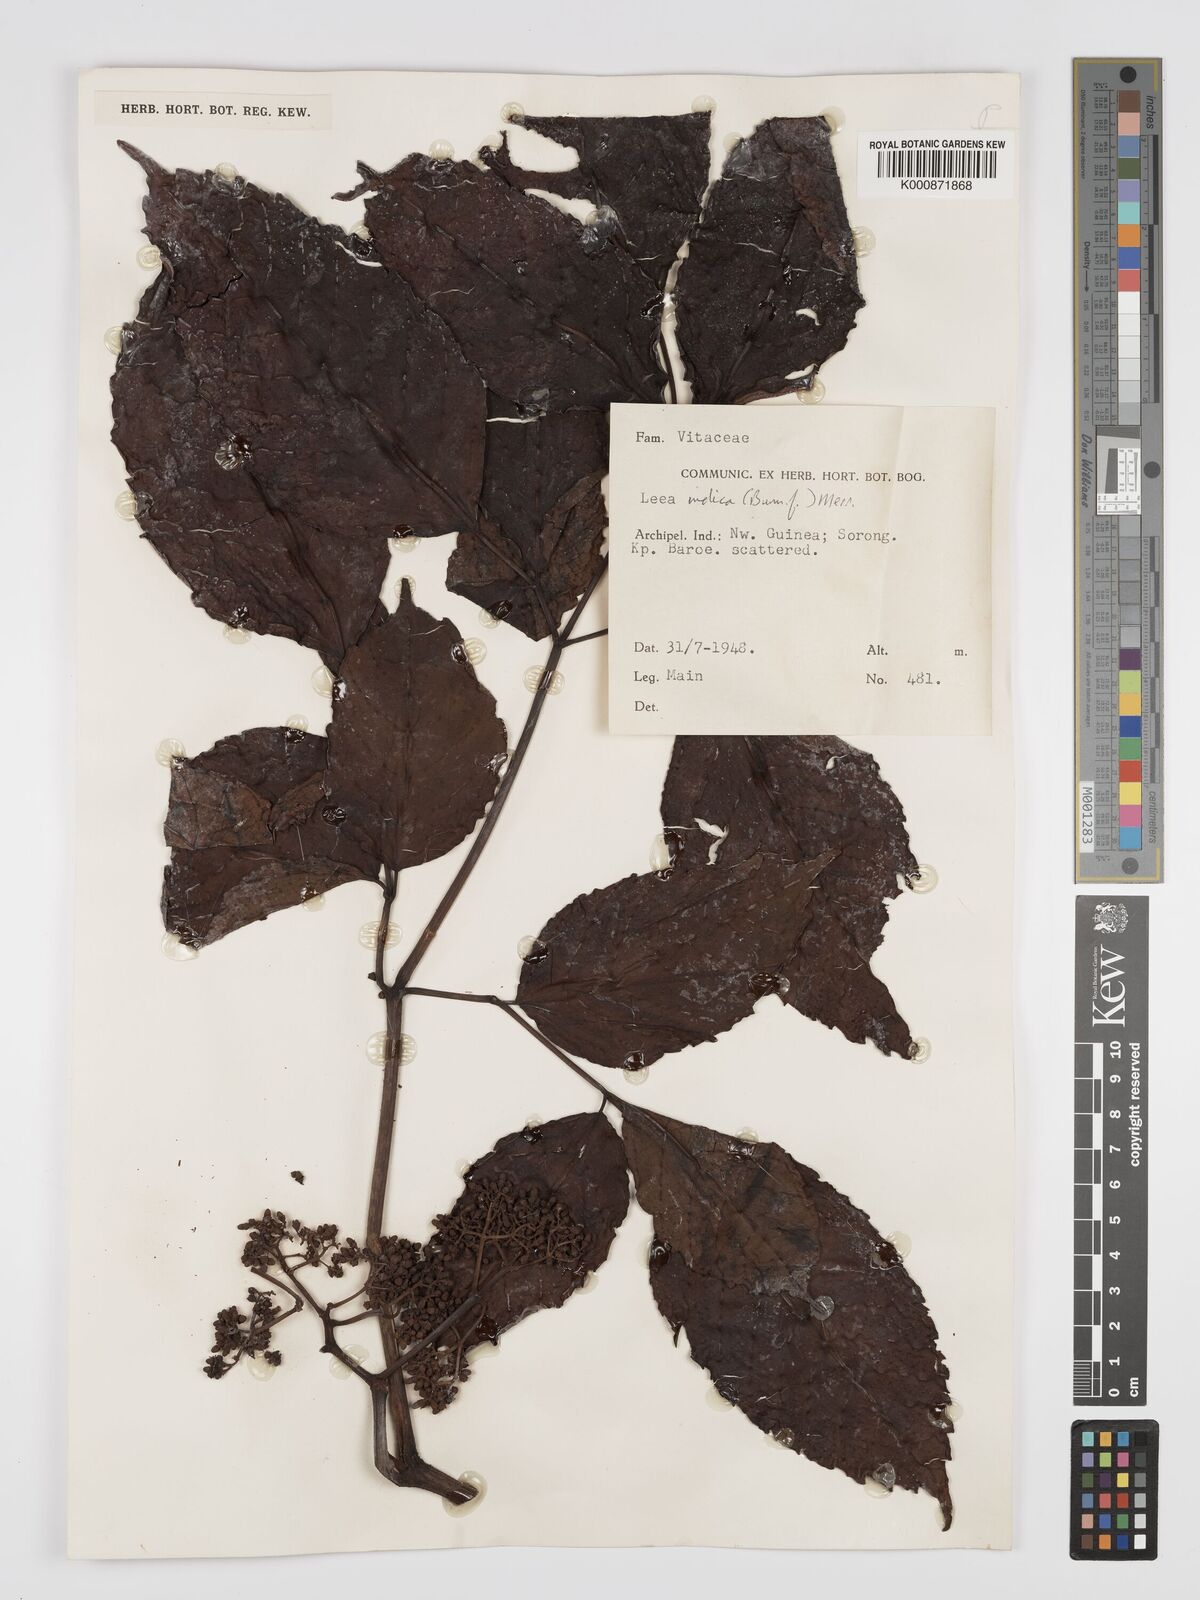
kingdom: Plantae
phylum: Tracheophyta
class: Magnoliopsida
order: Vitales
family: Vitaceae
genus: Leea
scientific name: Leea indica
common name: Bandicoot-berry
